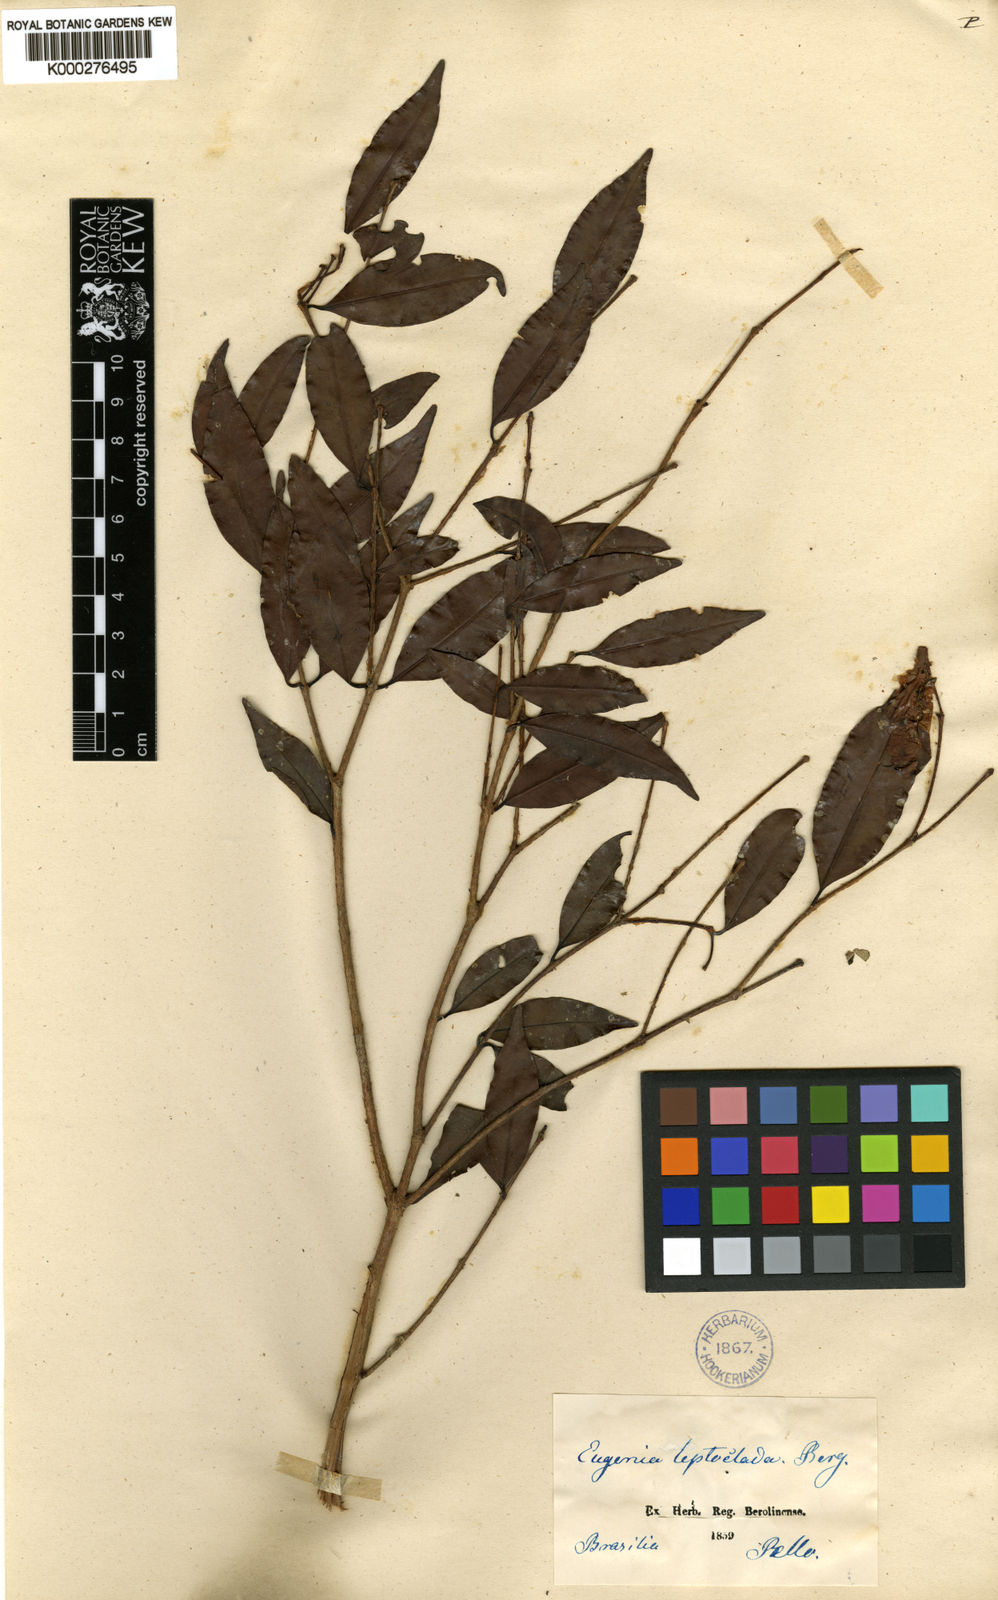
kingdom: Plantae
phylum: Tracheophyta
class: Magnoliopsida
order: Myrtales
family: Myrtaceae
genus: Eugenia
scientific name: Eugenia leptoclada
